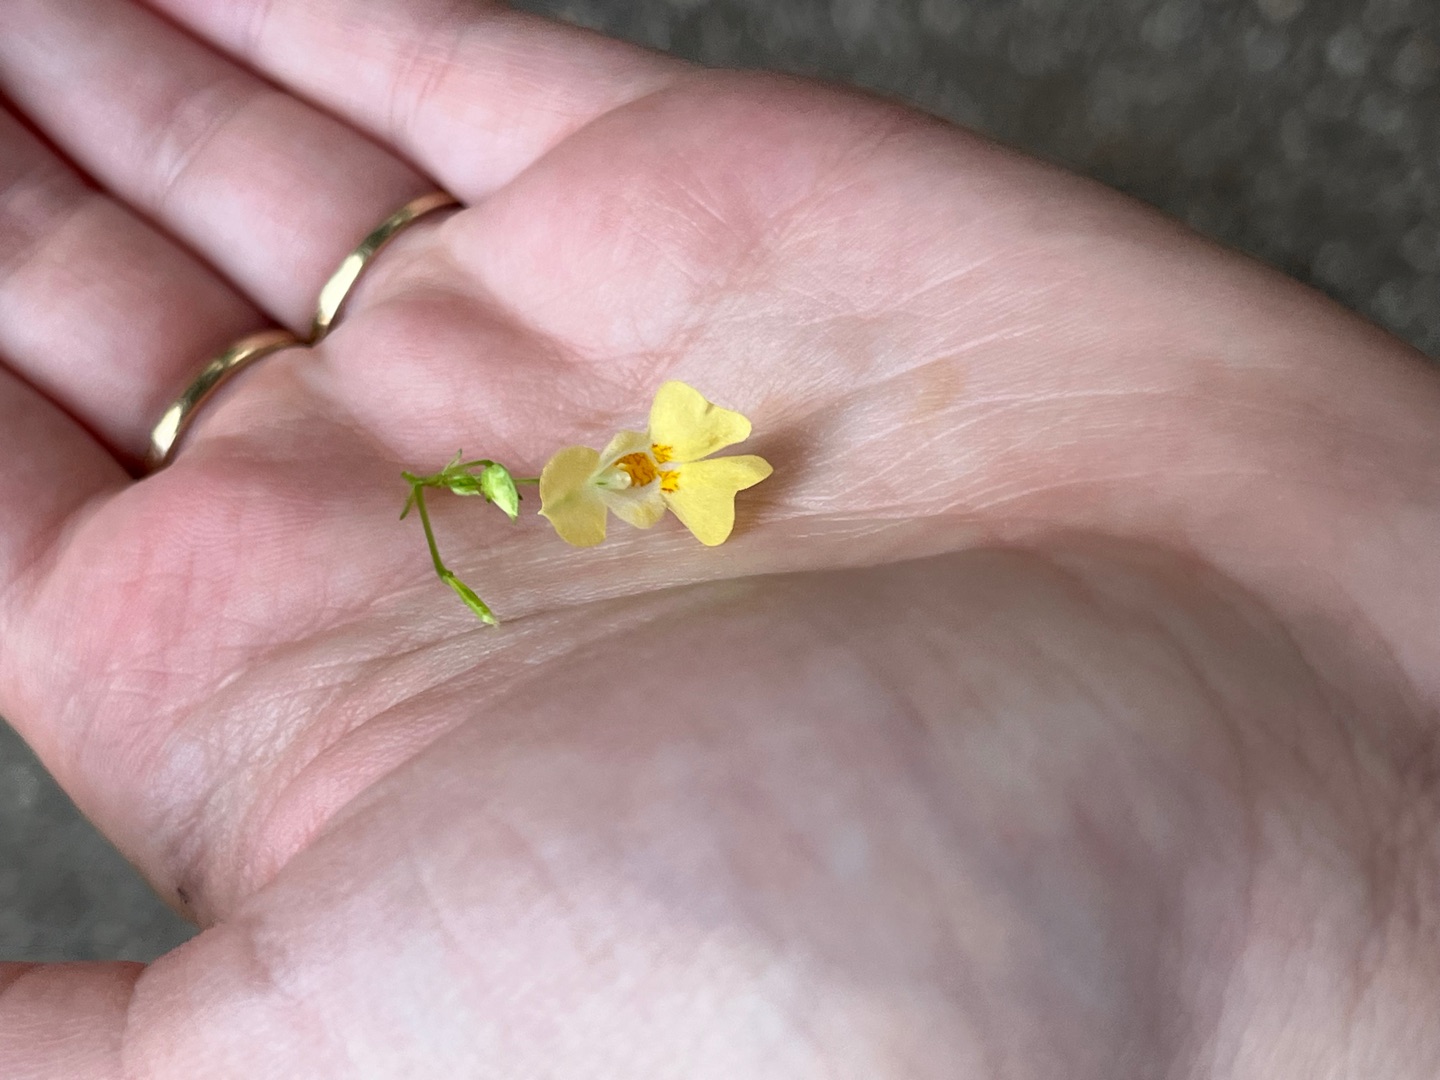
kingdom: Plantae
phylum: Tracheophyta
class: Magnoliopsida
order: Ericales
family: Balsaminaceae
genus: Impatiens
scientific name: Impatiens parviflora
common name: Småblomstret balsamin
